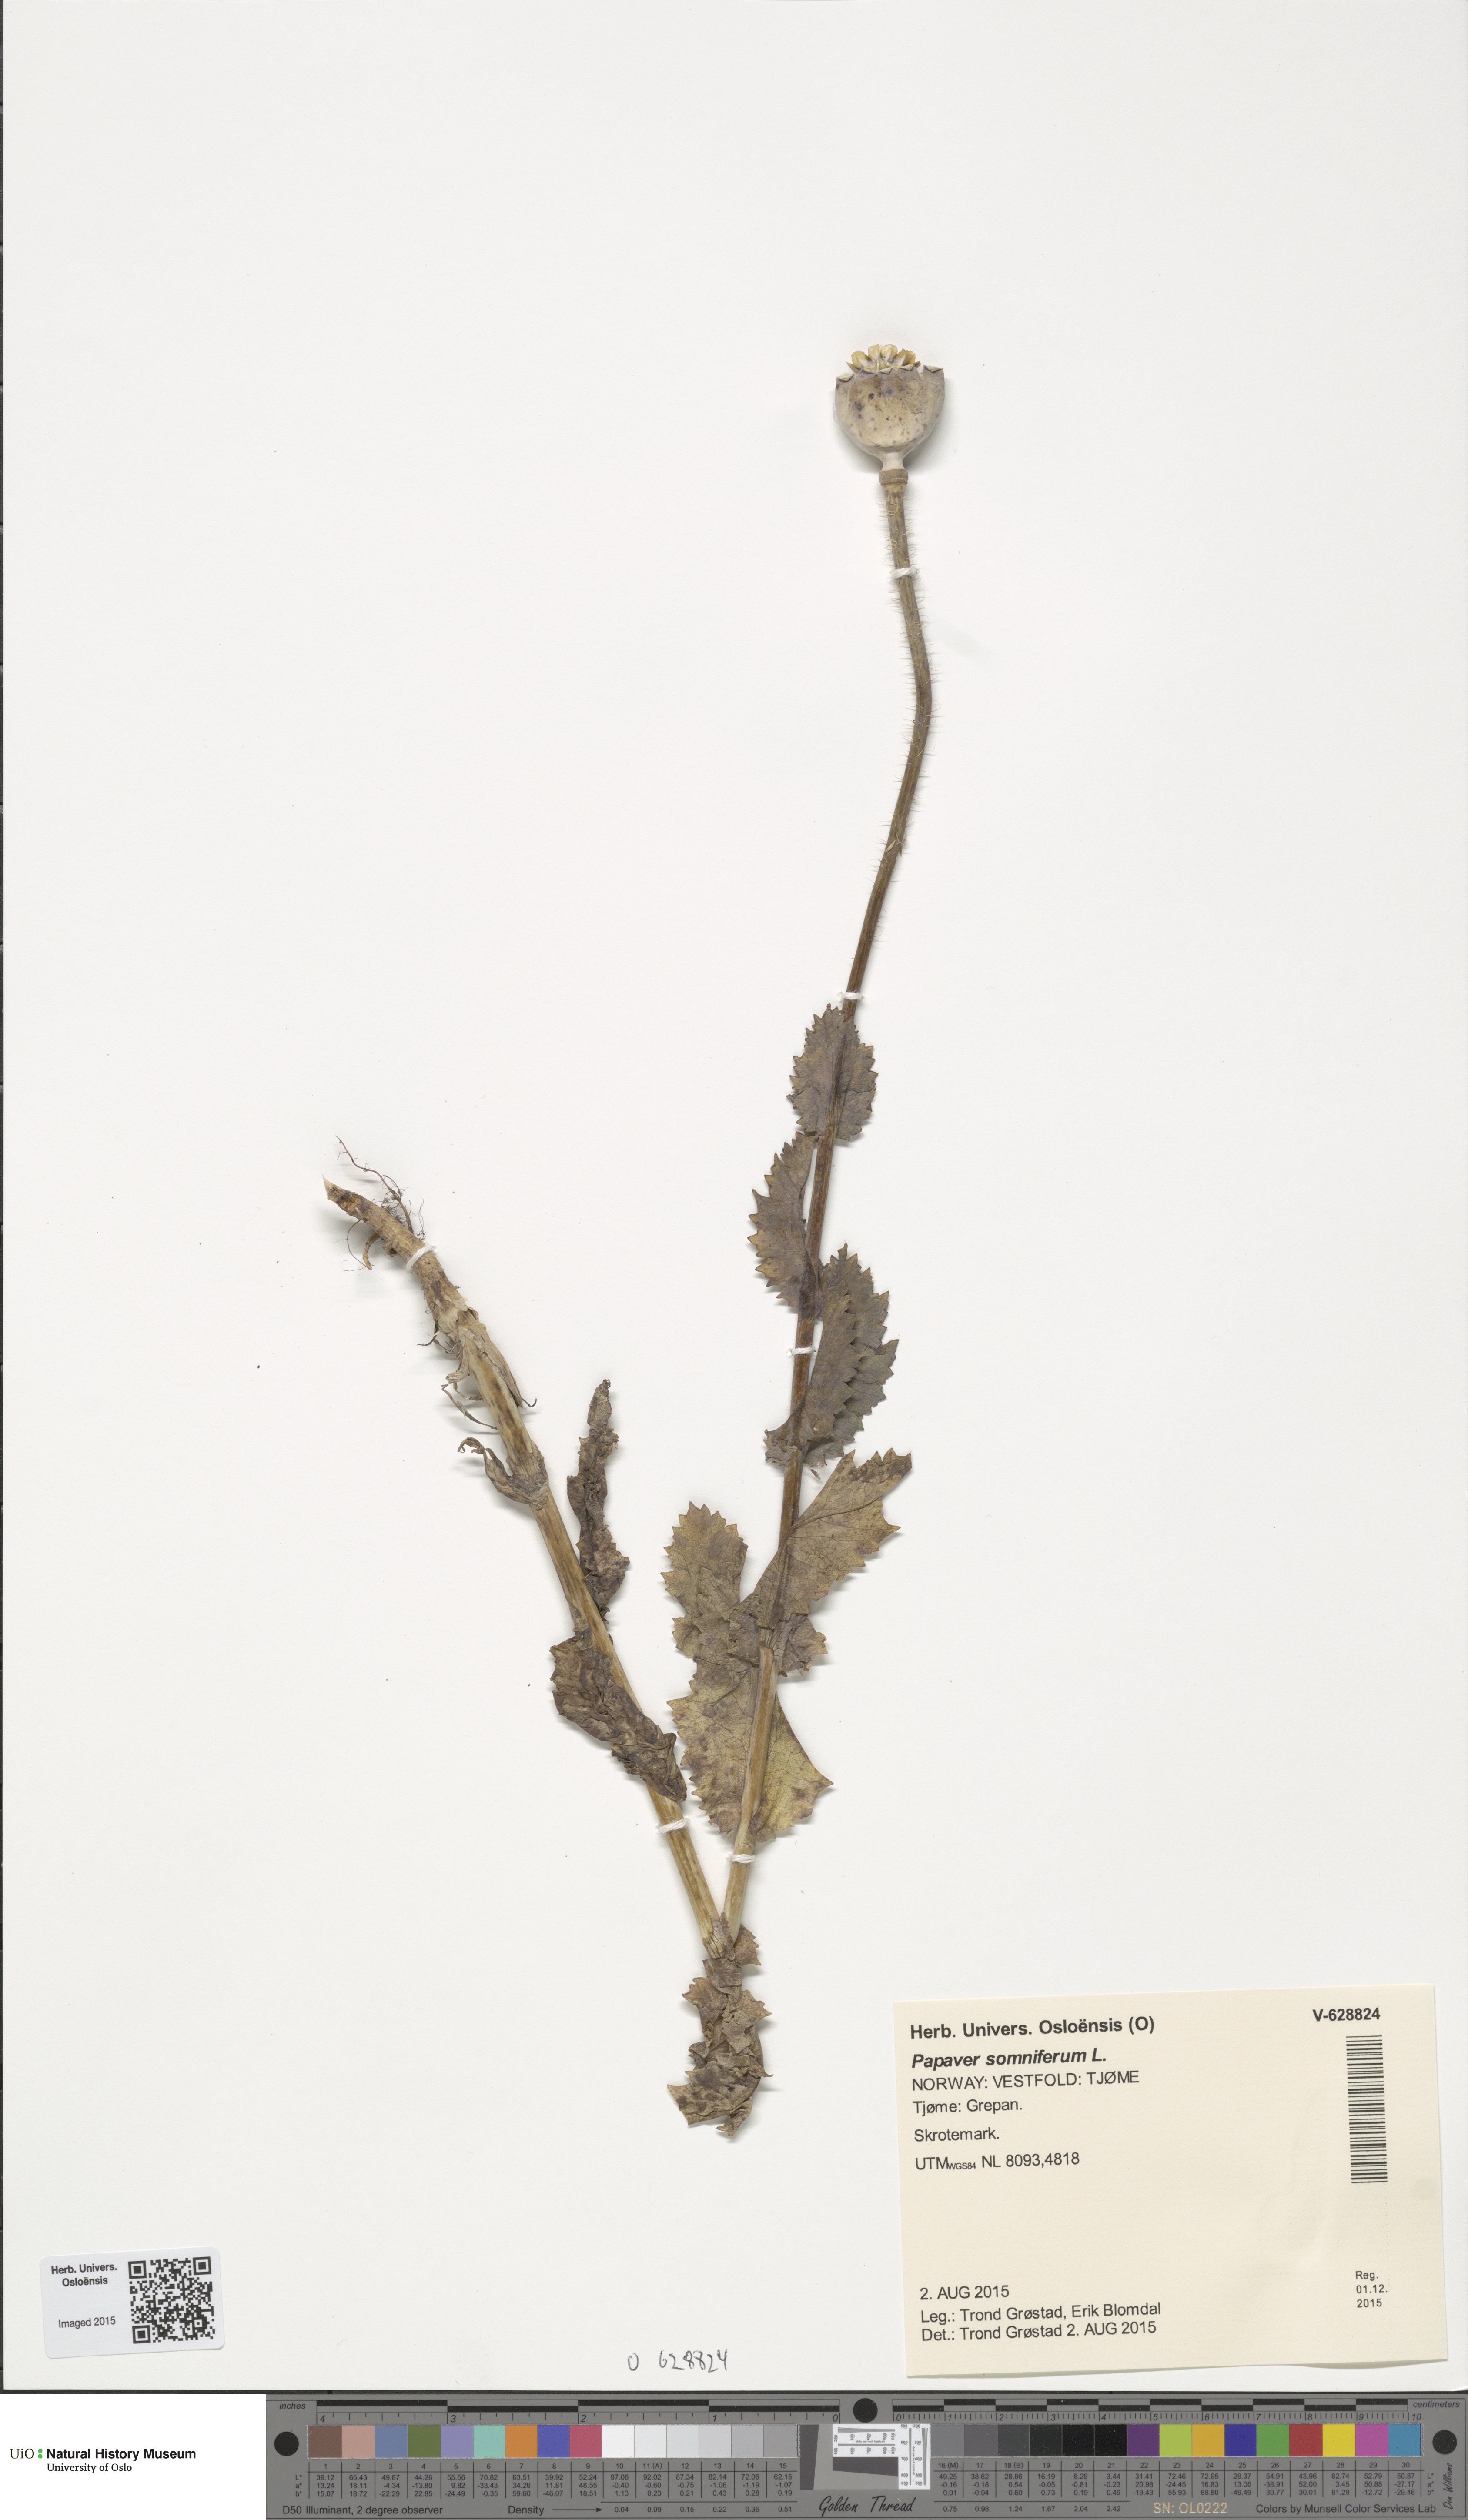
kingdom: Plantae
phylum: Tracheophyta
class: Magnoliopsida
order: Ranunculales
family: Papaveraceae
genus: Papaver
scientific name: Papaver somniferum
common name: Opium poppy
